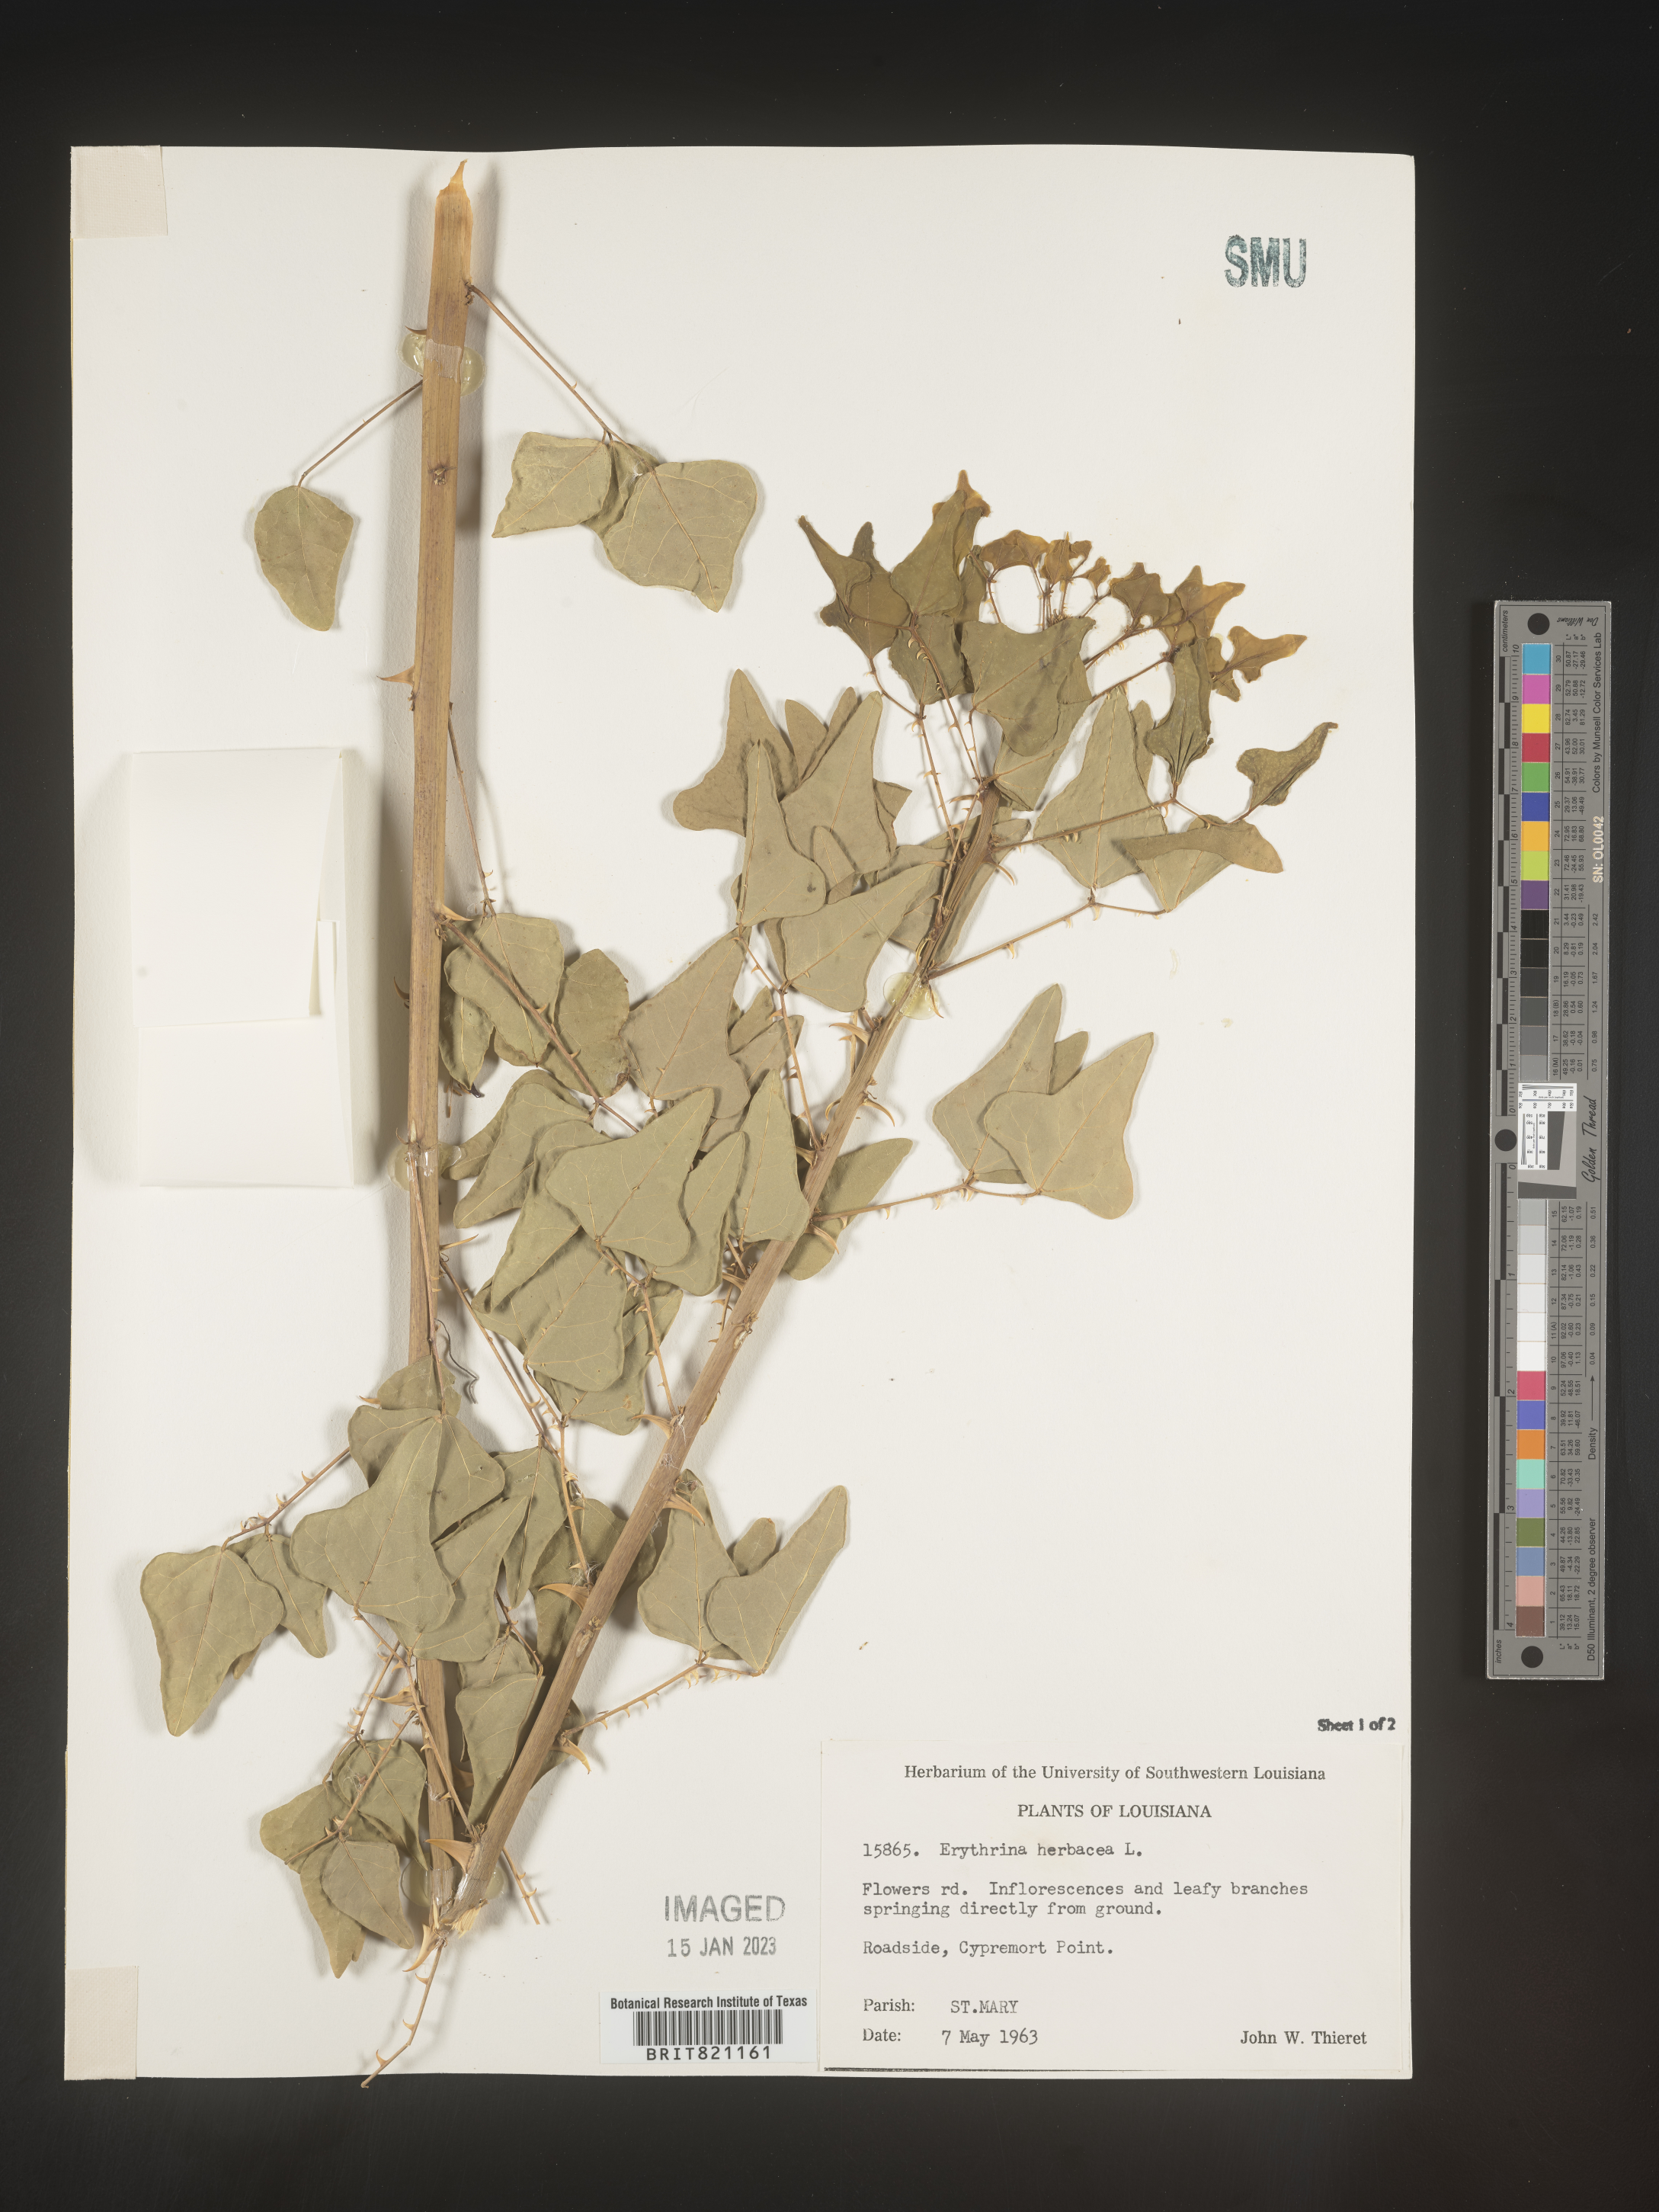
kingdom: Plantae
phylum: Tracheophyta
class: Magnoliopsida
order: Fabales
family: Fabaceae
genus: Erythrina
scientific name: Erythrina herbacea
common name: Coral-bean
